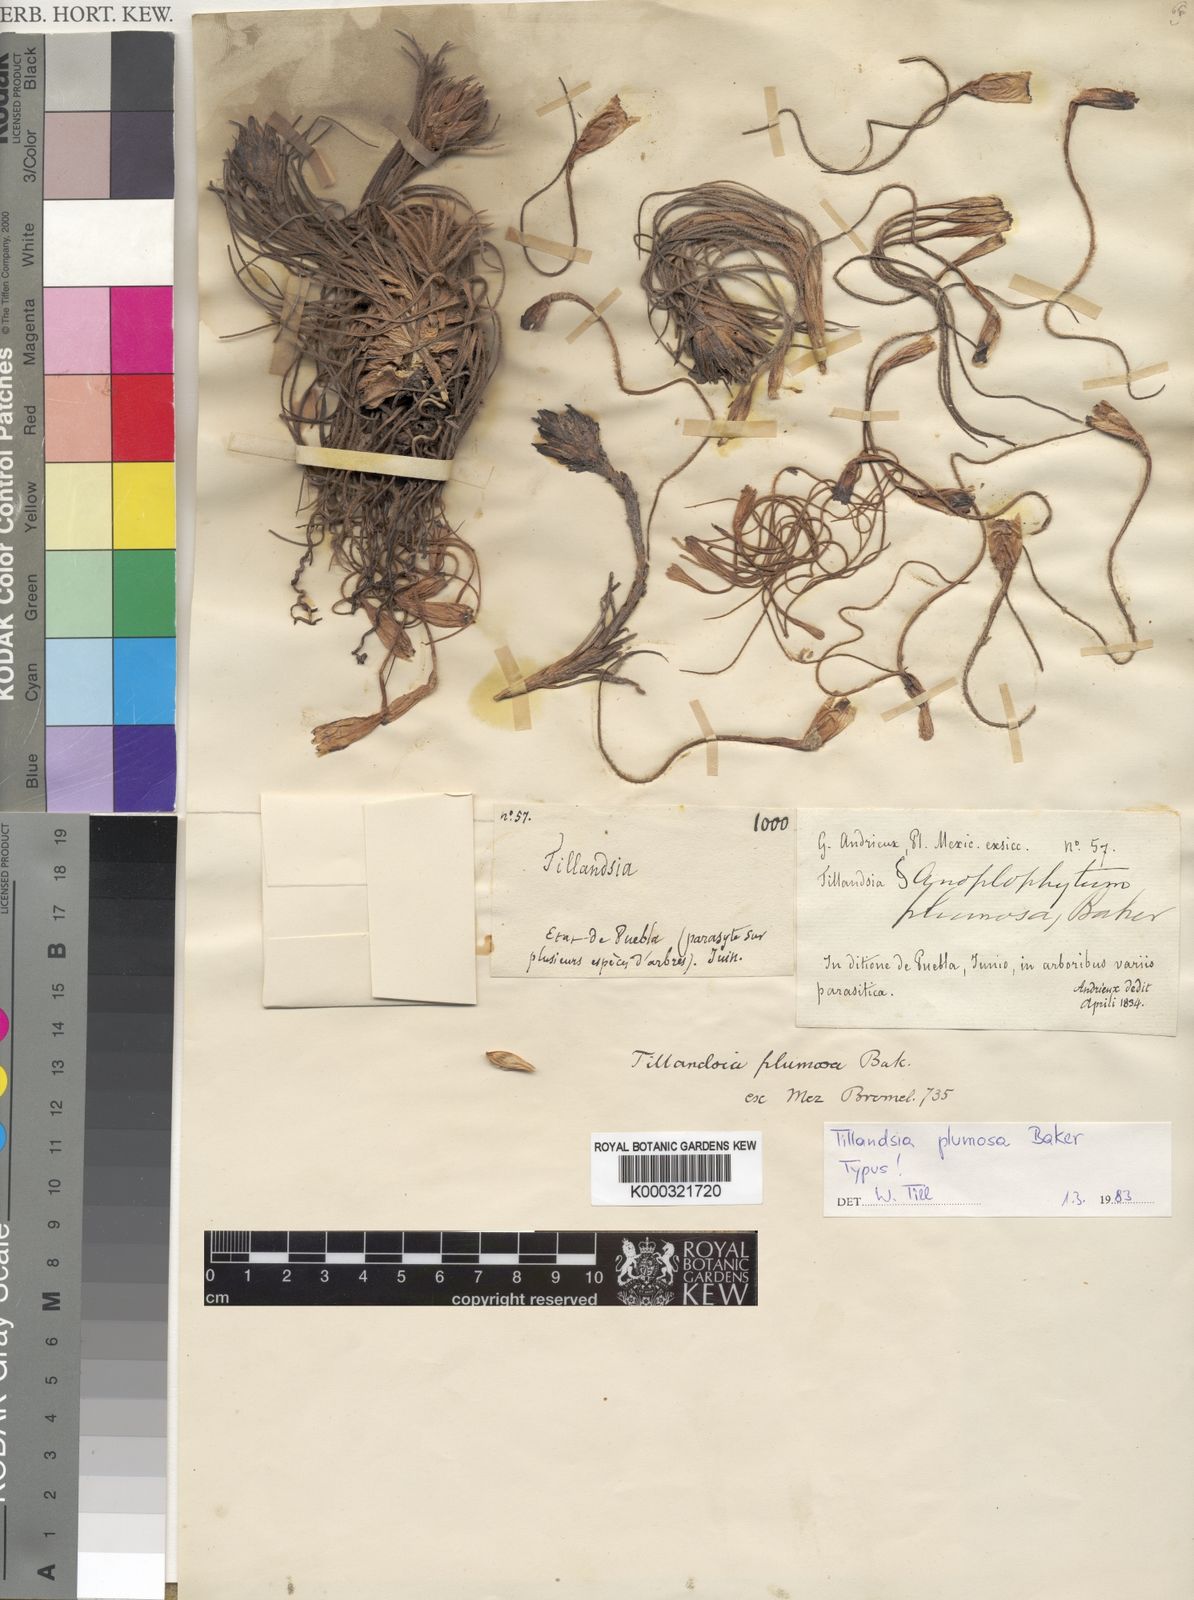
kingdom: Plantae
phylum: Tracheophyta
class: Liliopsida
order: Poales
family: Bromeliaceae
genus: Tillandsia
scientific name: Tillandsia plumosa
